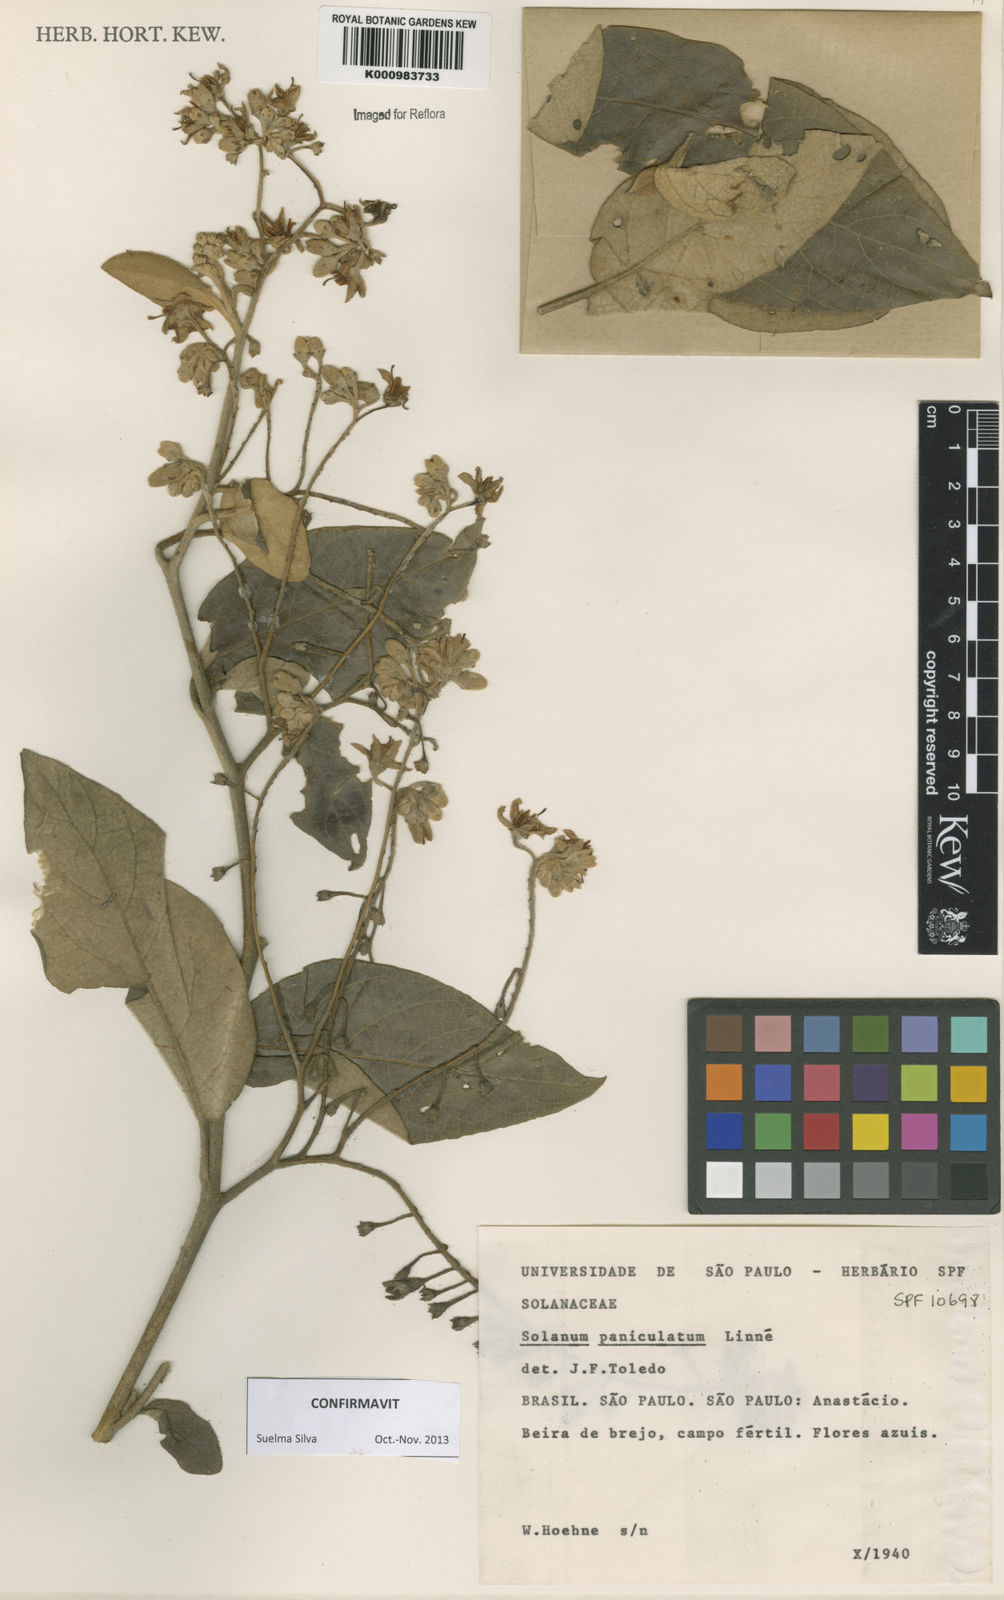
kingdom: Plantae
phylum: Tracheophyta
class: Magnoliopsida
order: Solanales
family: Solanaceae
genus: Solanum
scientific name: Solanum paniculatum
